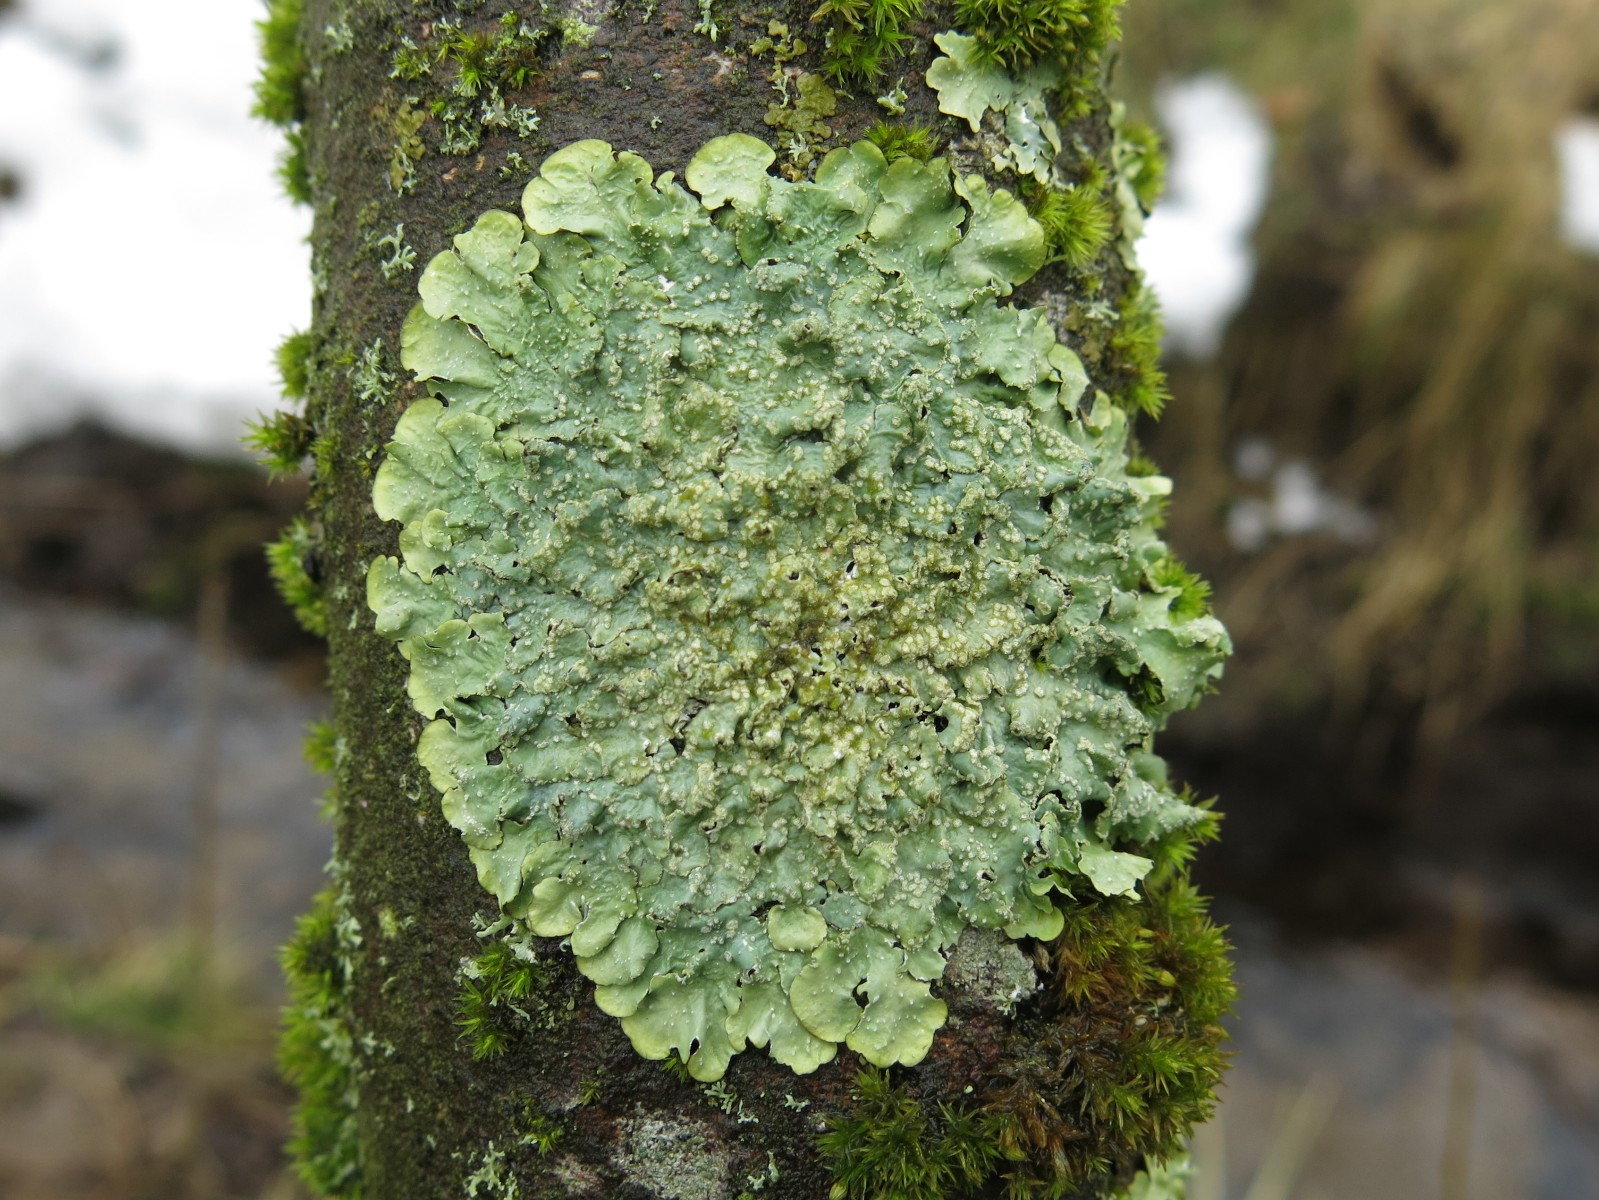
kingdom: Fungi
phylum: Ascomycota
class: Lecanoromycetes
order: Lecanorales
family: Parmeliaceae
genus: Punctelia
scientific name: Punctelia subrudecta
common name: punkt-skållav
